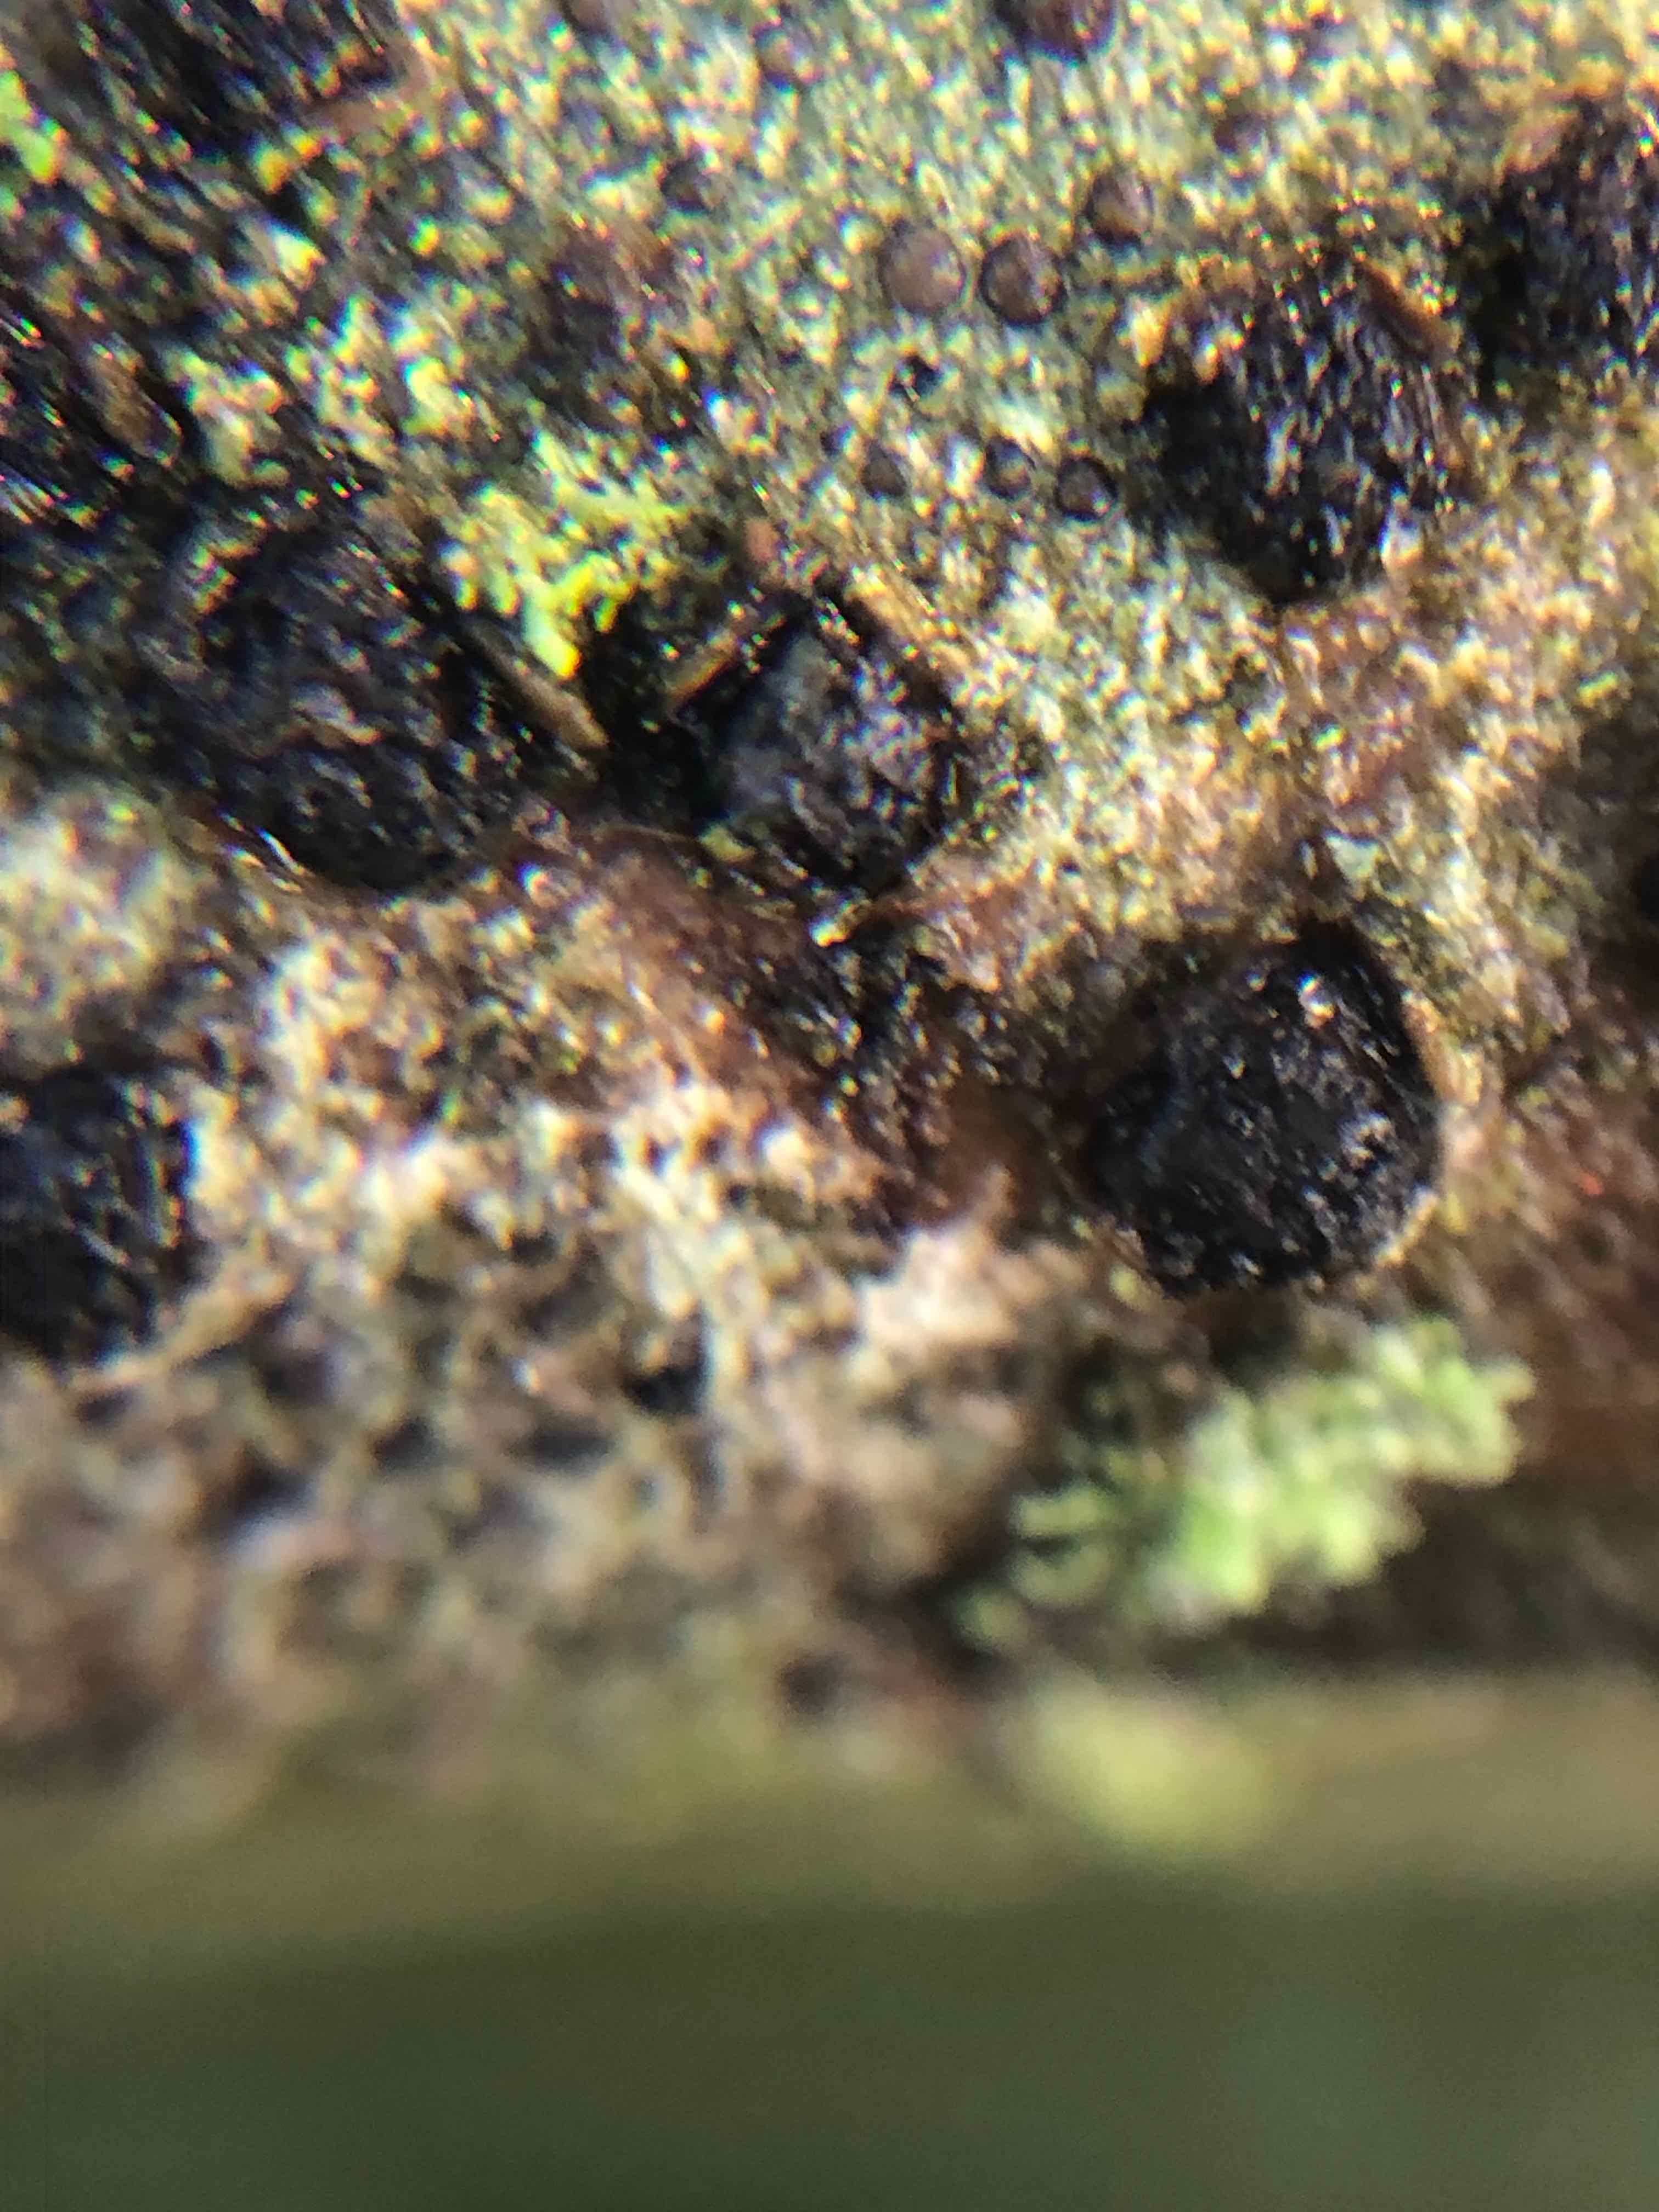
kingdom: Fungi
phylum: Ascomycota
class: Sordariomycetes
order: Xylariales
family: Diatrypaceae
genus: Diatrypella
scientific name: Diatrypella quercina
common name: ege-kulskorpe
